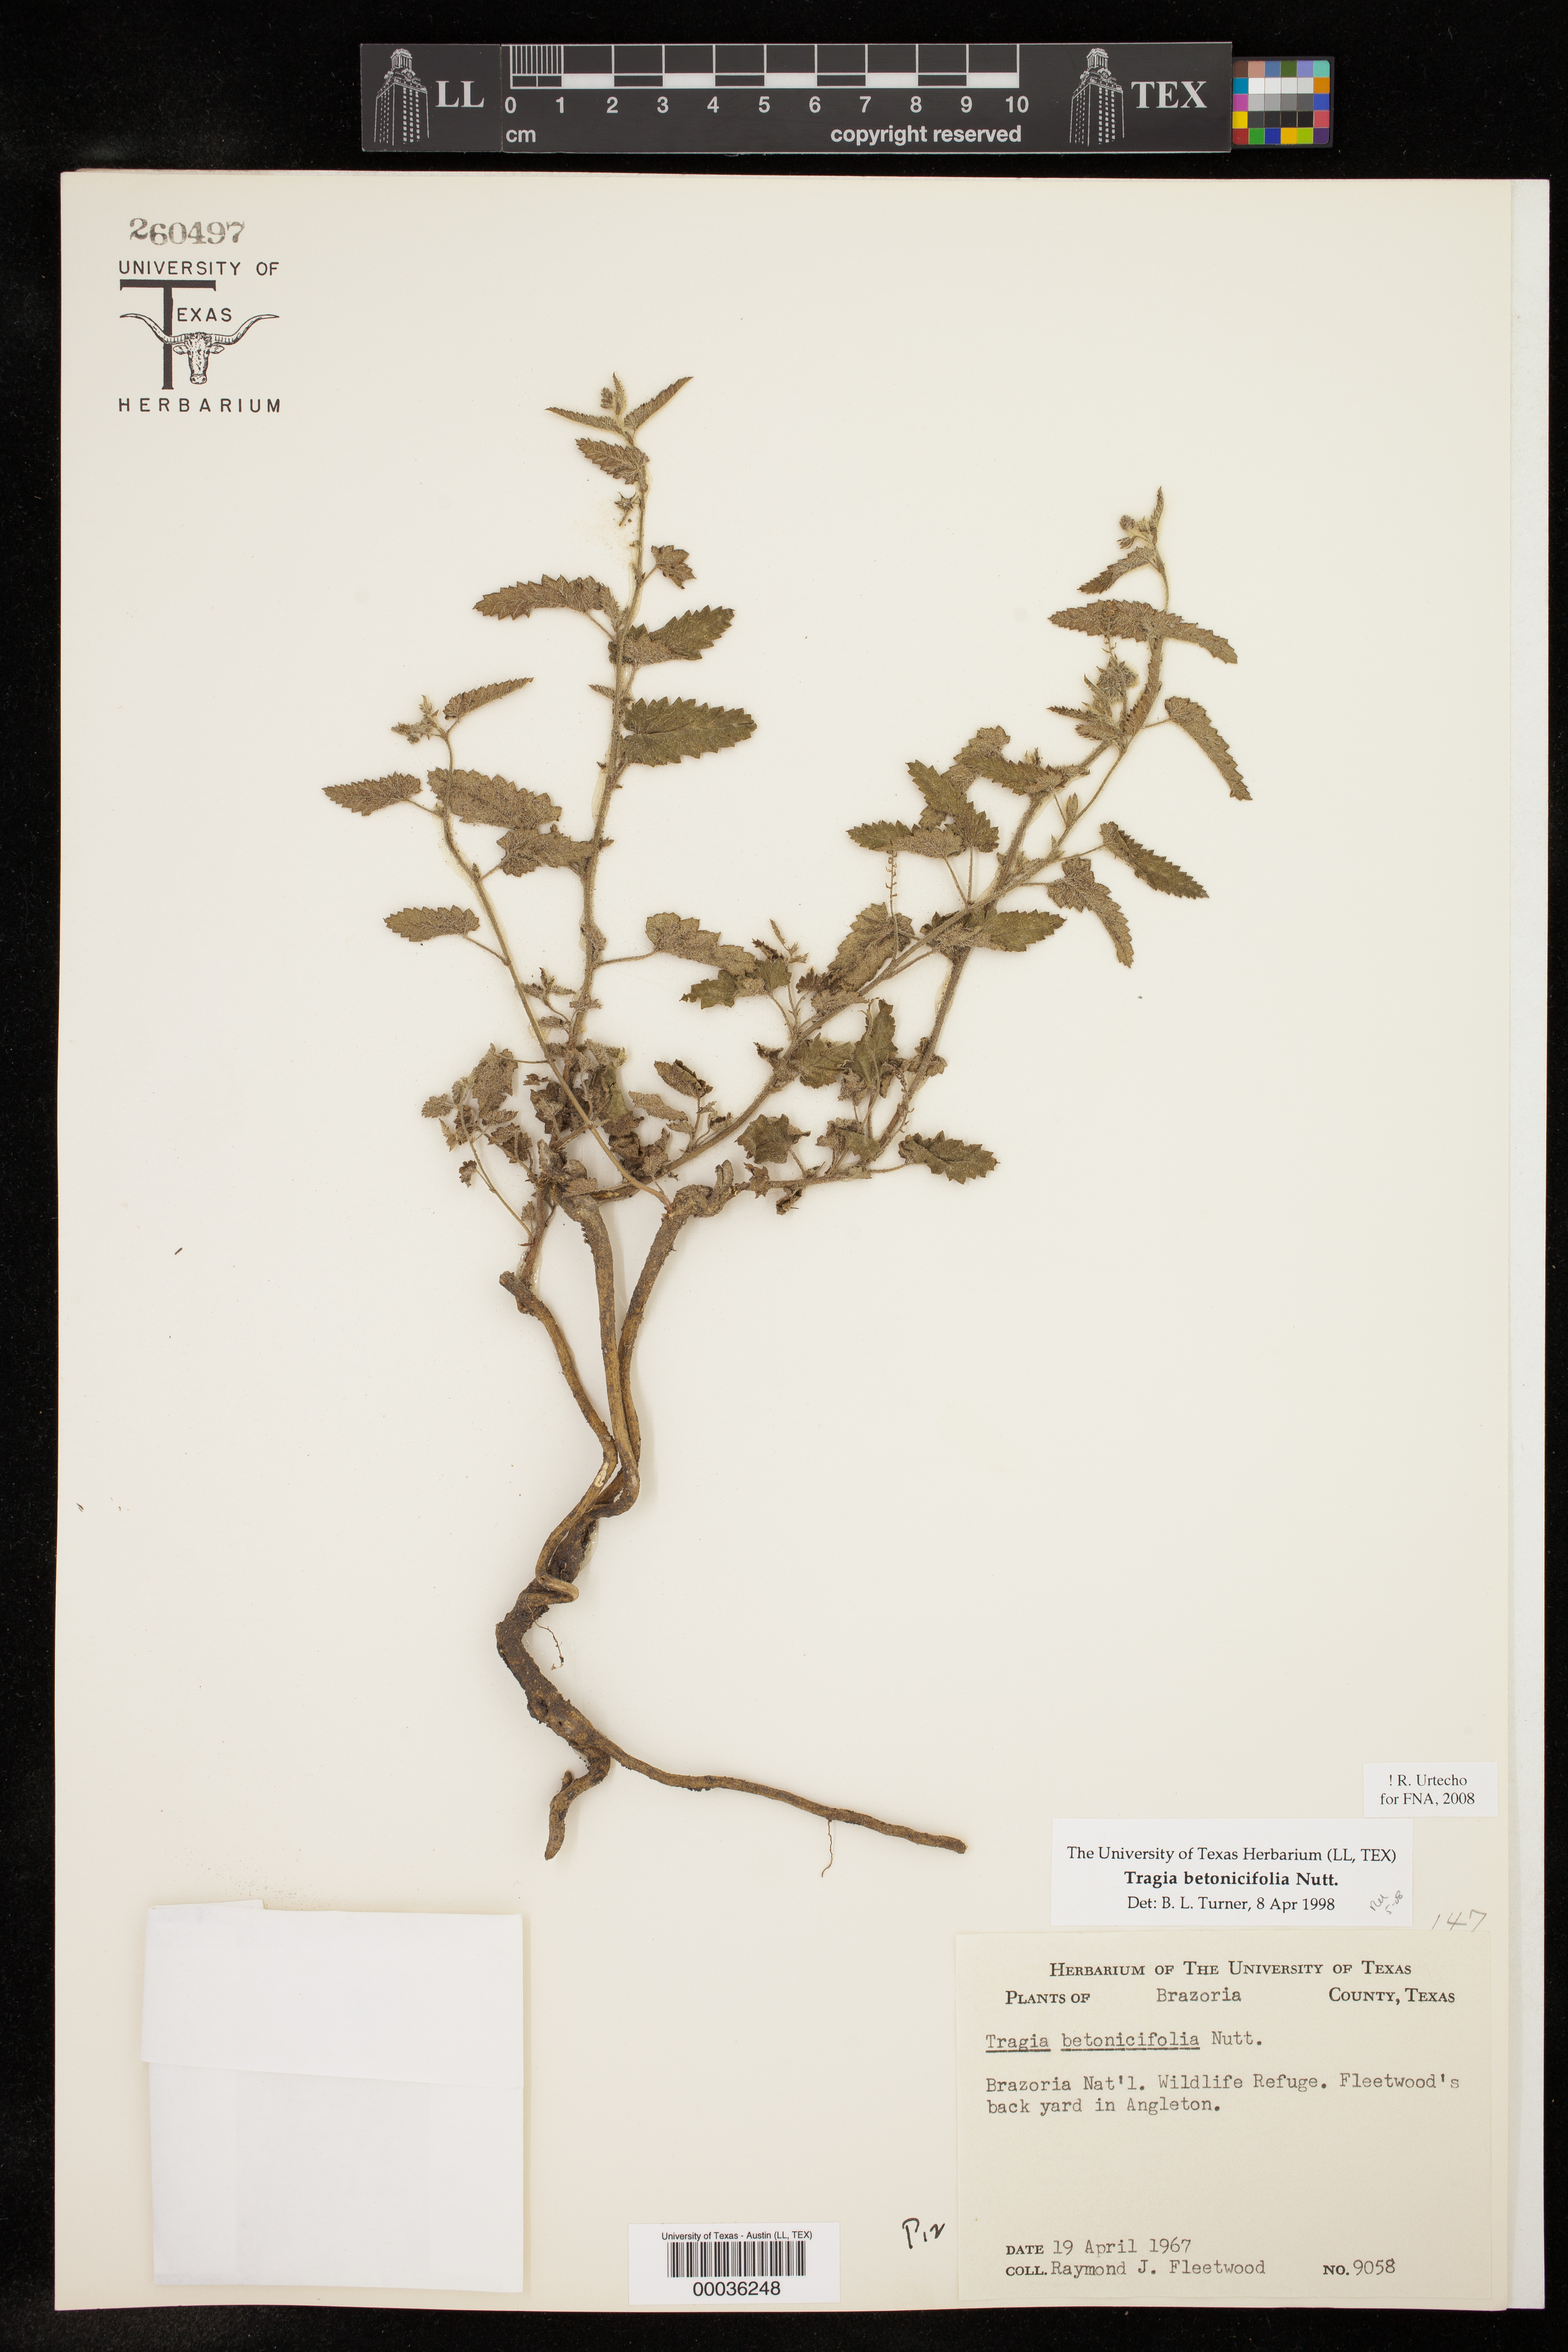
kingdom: Plantae
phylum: Tracheophyta
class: Magnoliopsida
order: Malpighiales
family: Euphorbiaceae
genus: Tragia
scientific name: Tragia betonicifolia
